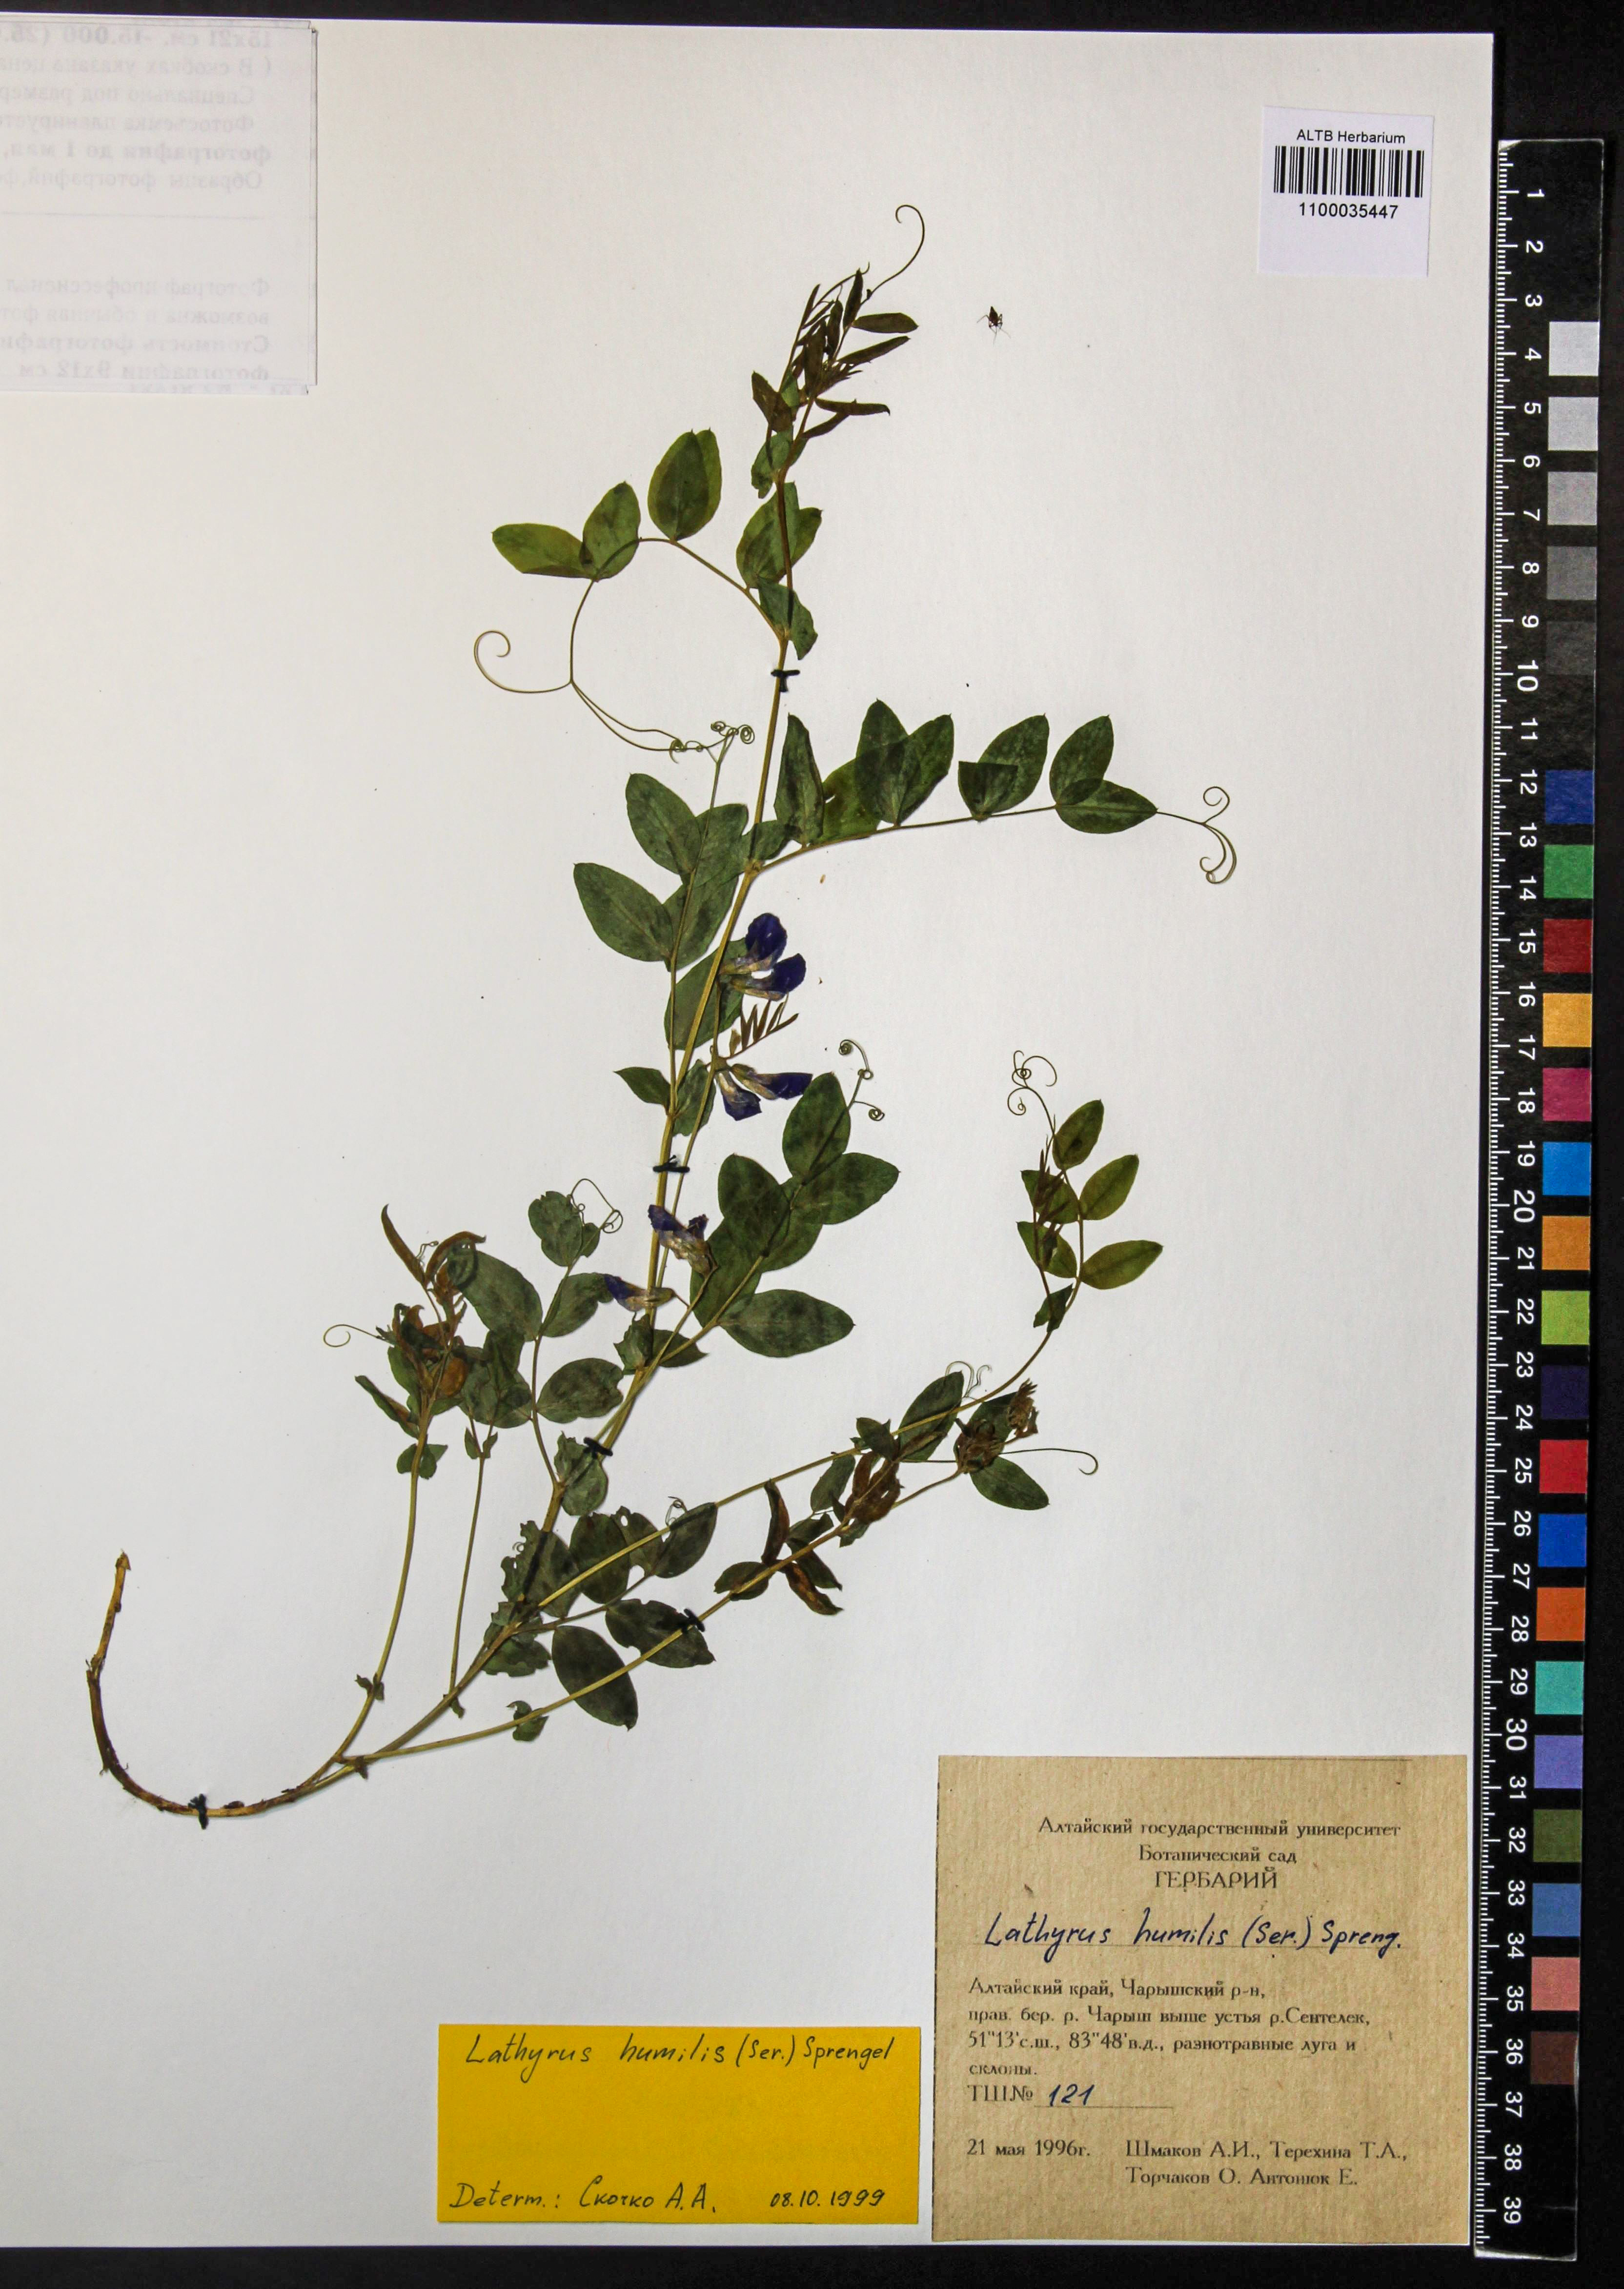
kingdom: Plantae
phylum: Tracheophyta
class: Magnoliopsida
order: Fabales
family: Fabaceae
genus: Lathyrus
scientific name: Lathyrus humilis
